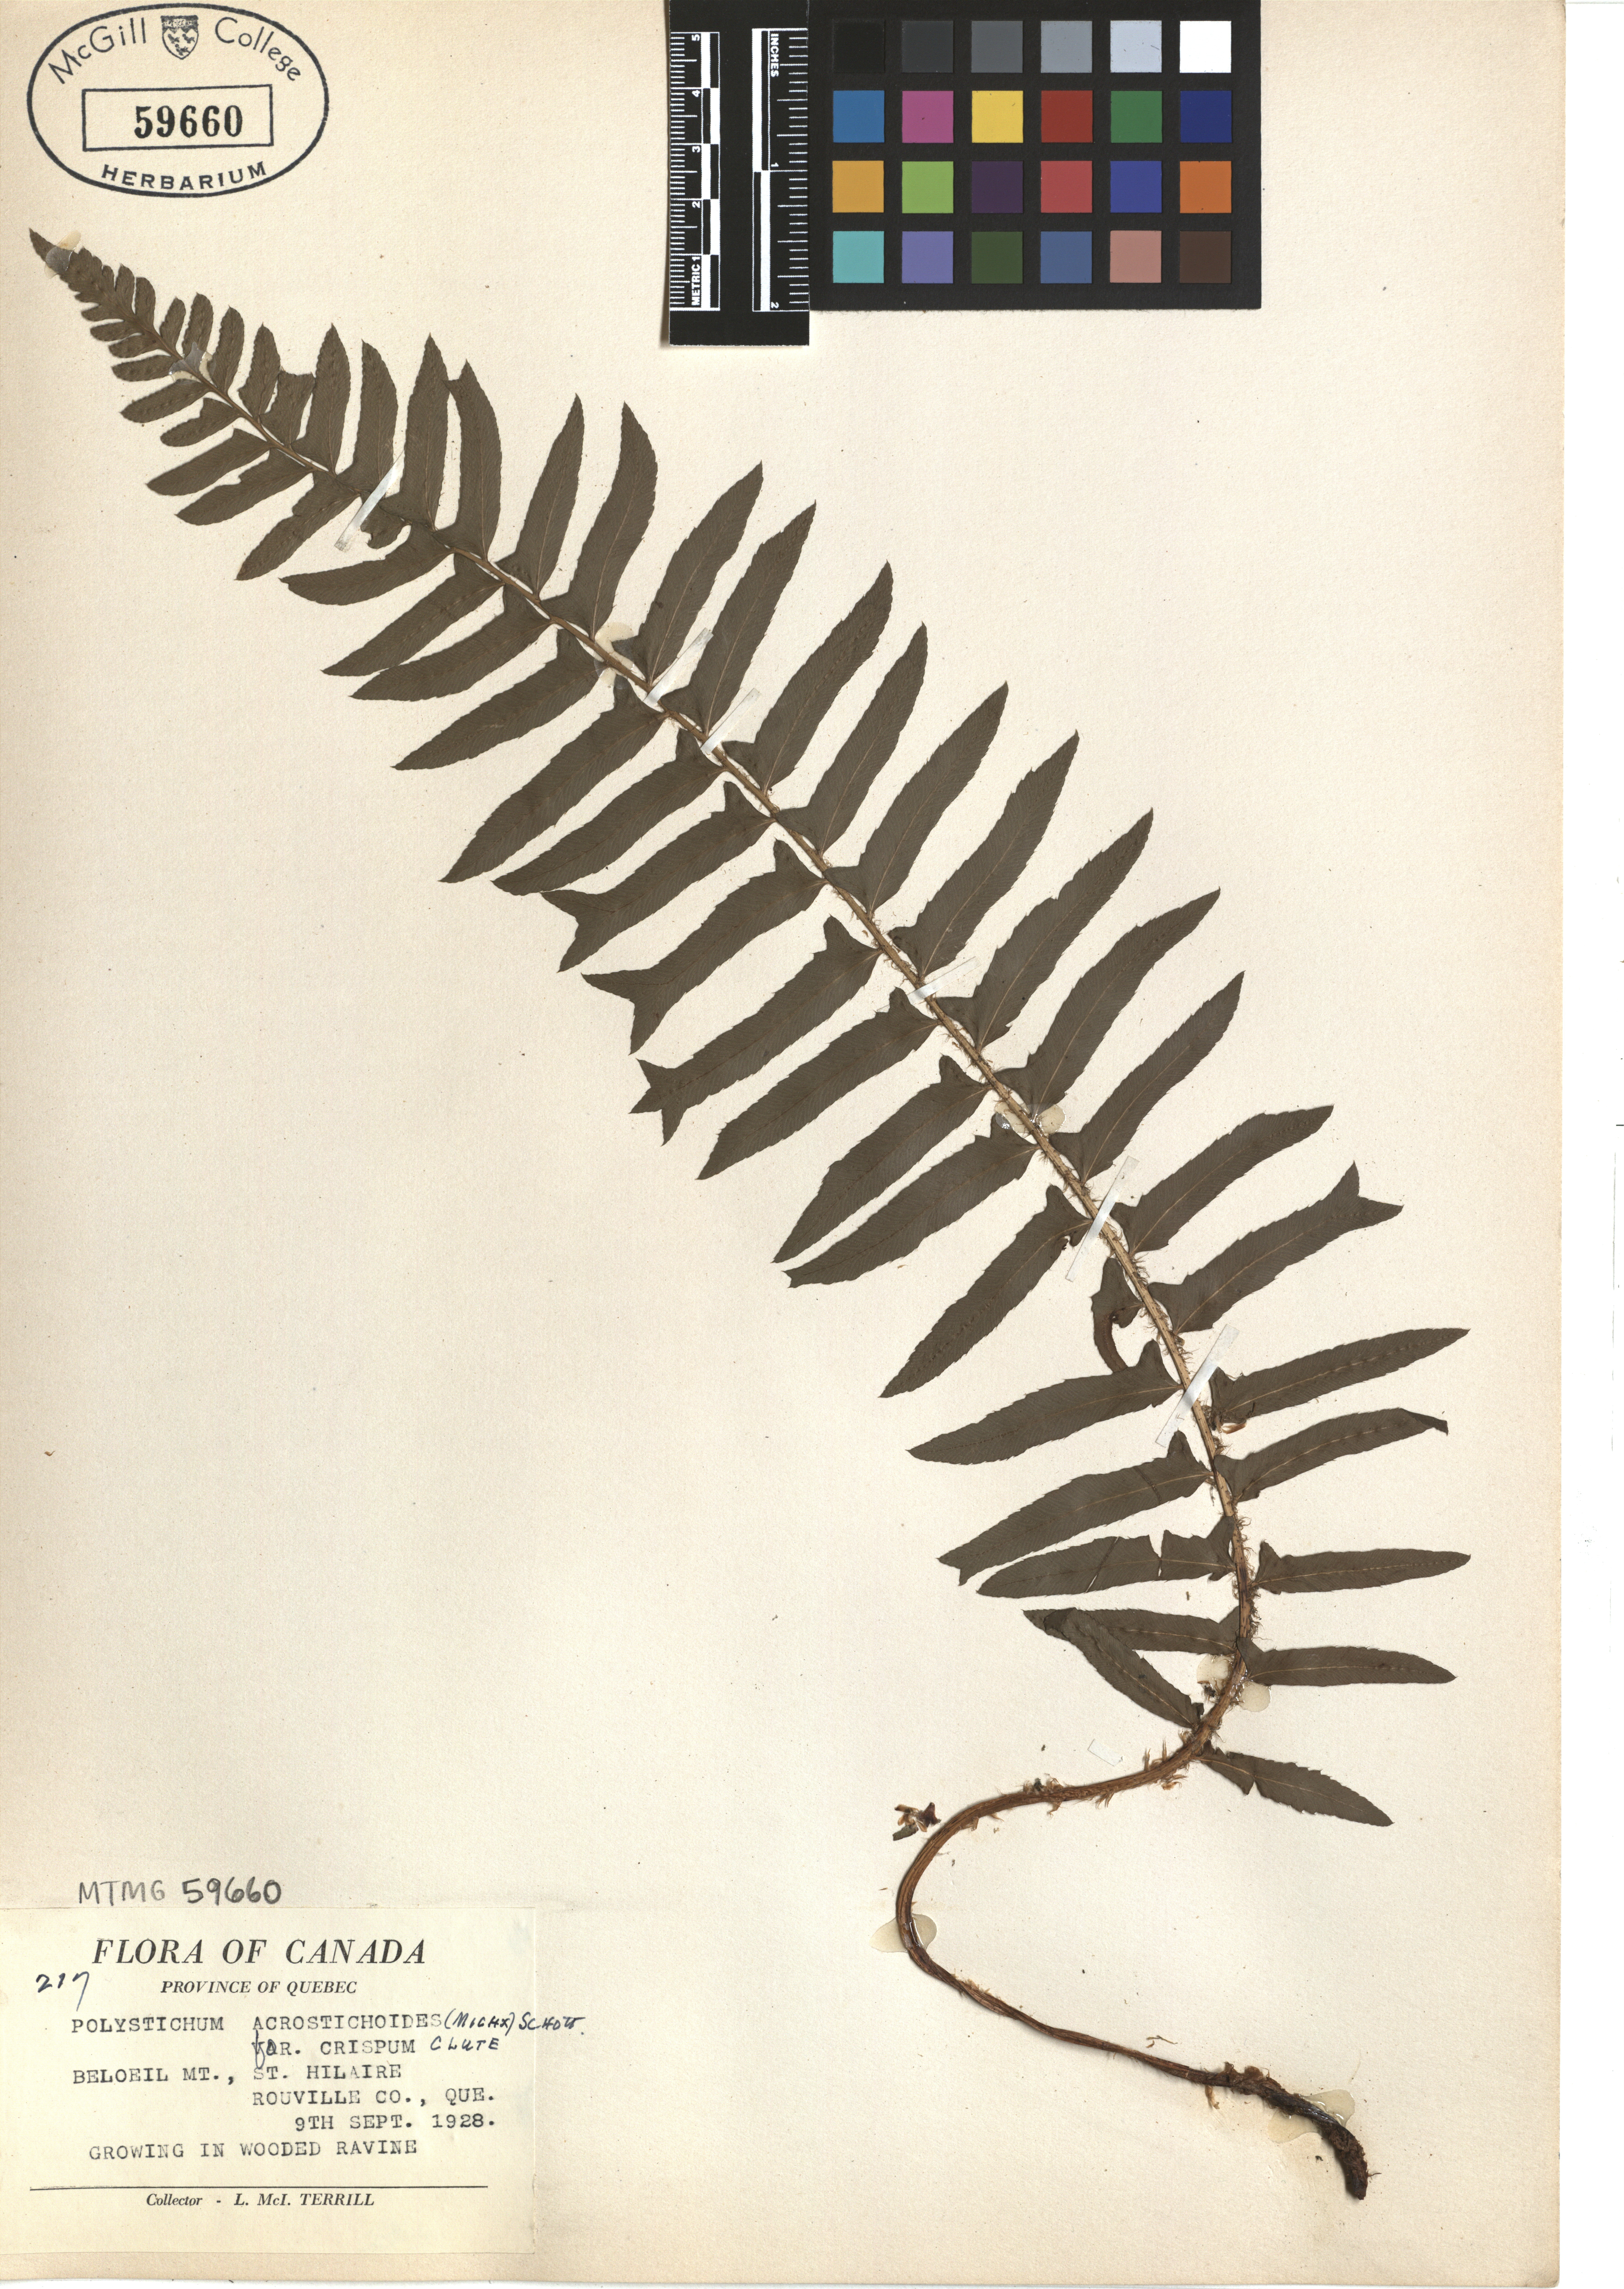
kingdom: Plantae
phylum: Tracheophyta
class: Polypodiopsida
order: Polypodiales
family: Dryopteridaceae
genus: Polystichum
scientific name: Polystichum acrostichoides
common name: Christmas fern
